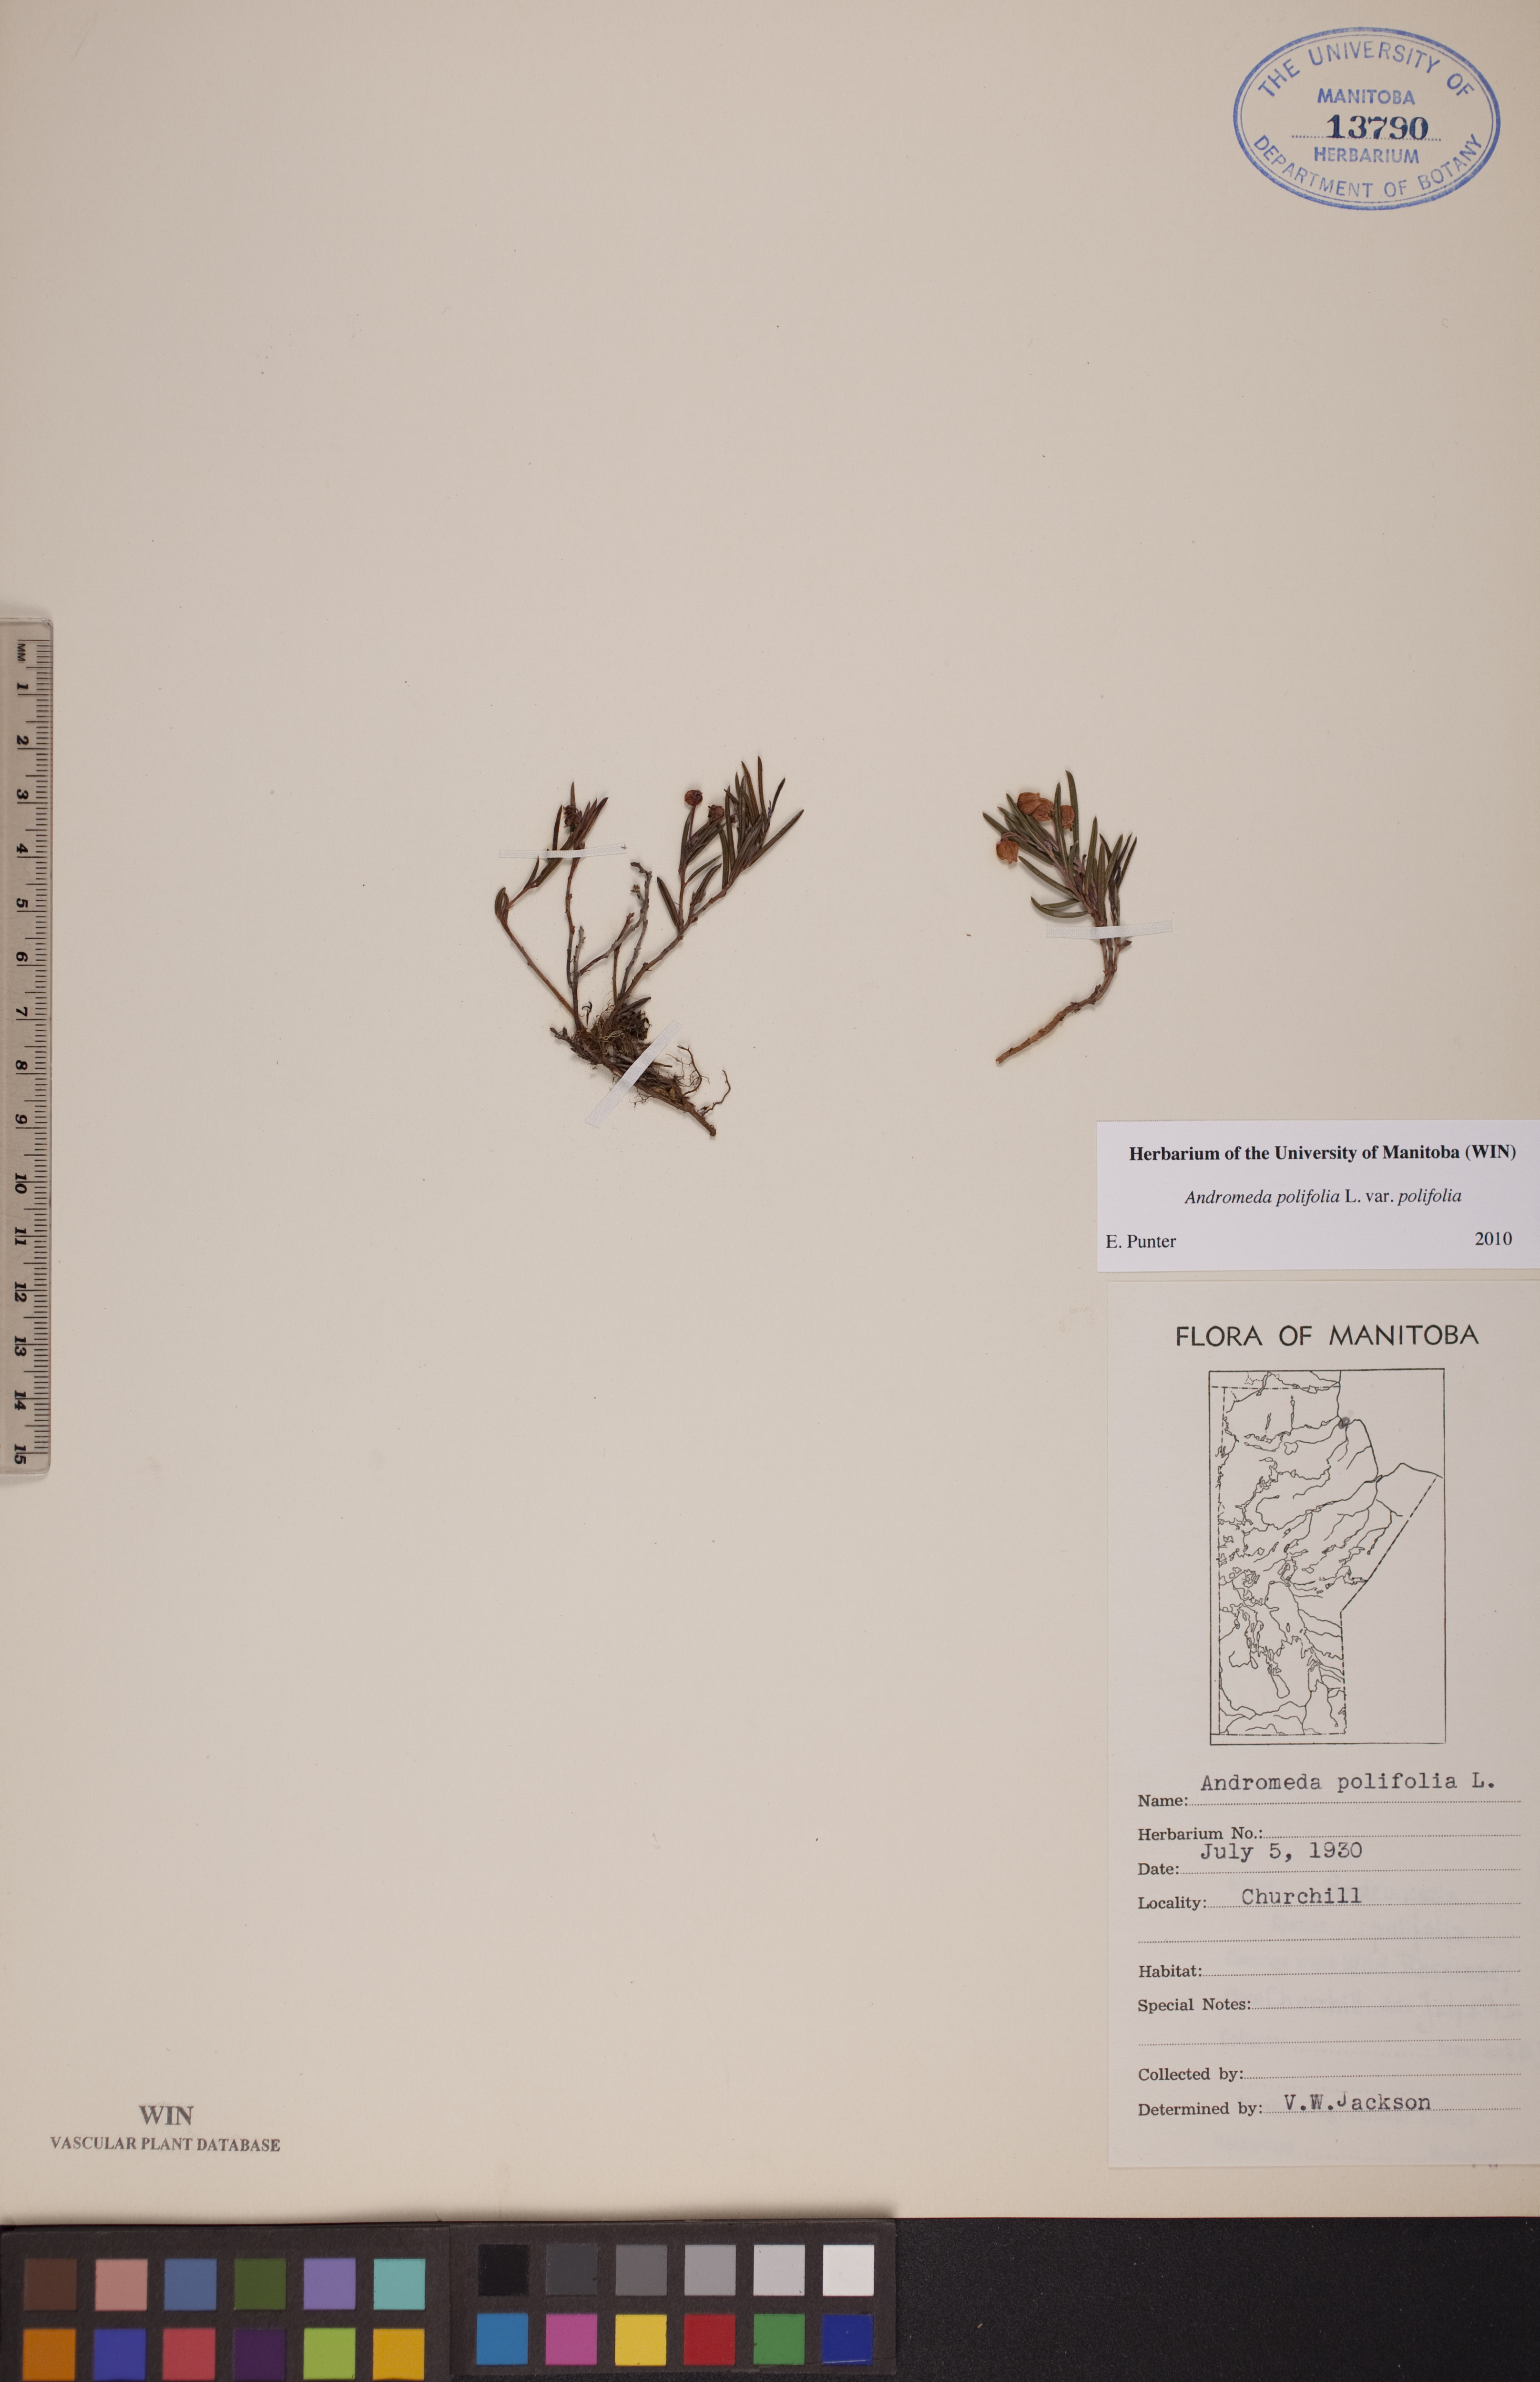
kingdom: Plantae
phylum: Tracheophyta
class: Magnoliopsida
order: Ericales
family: Ericaceae
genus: Andromeda
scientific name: Andromeda polifolia
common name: Bog-rosemary
